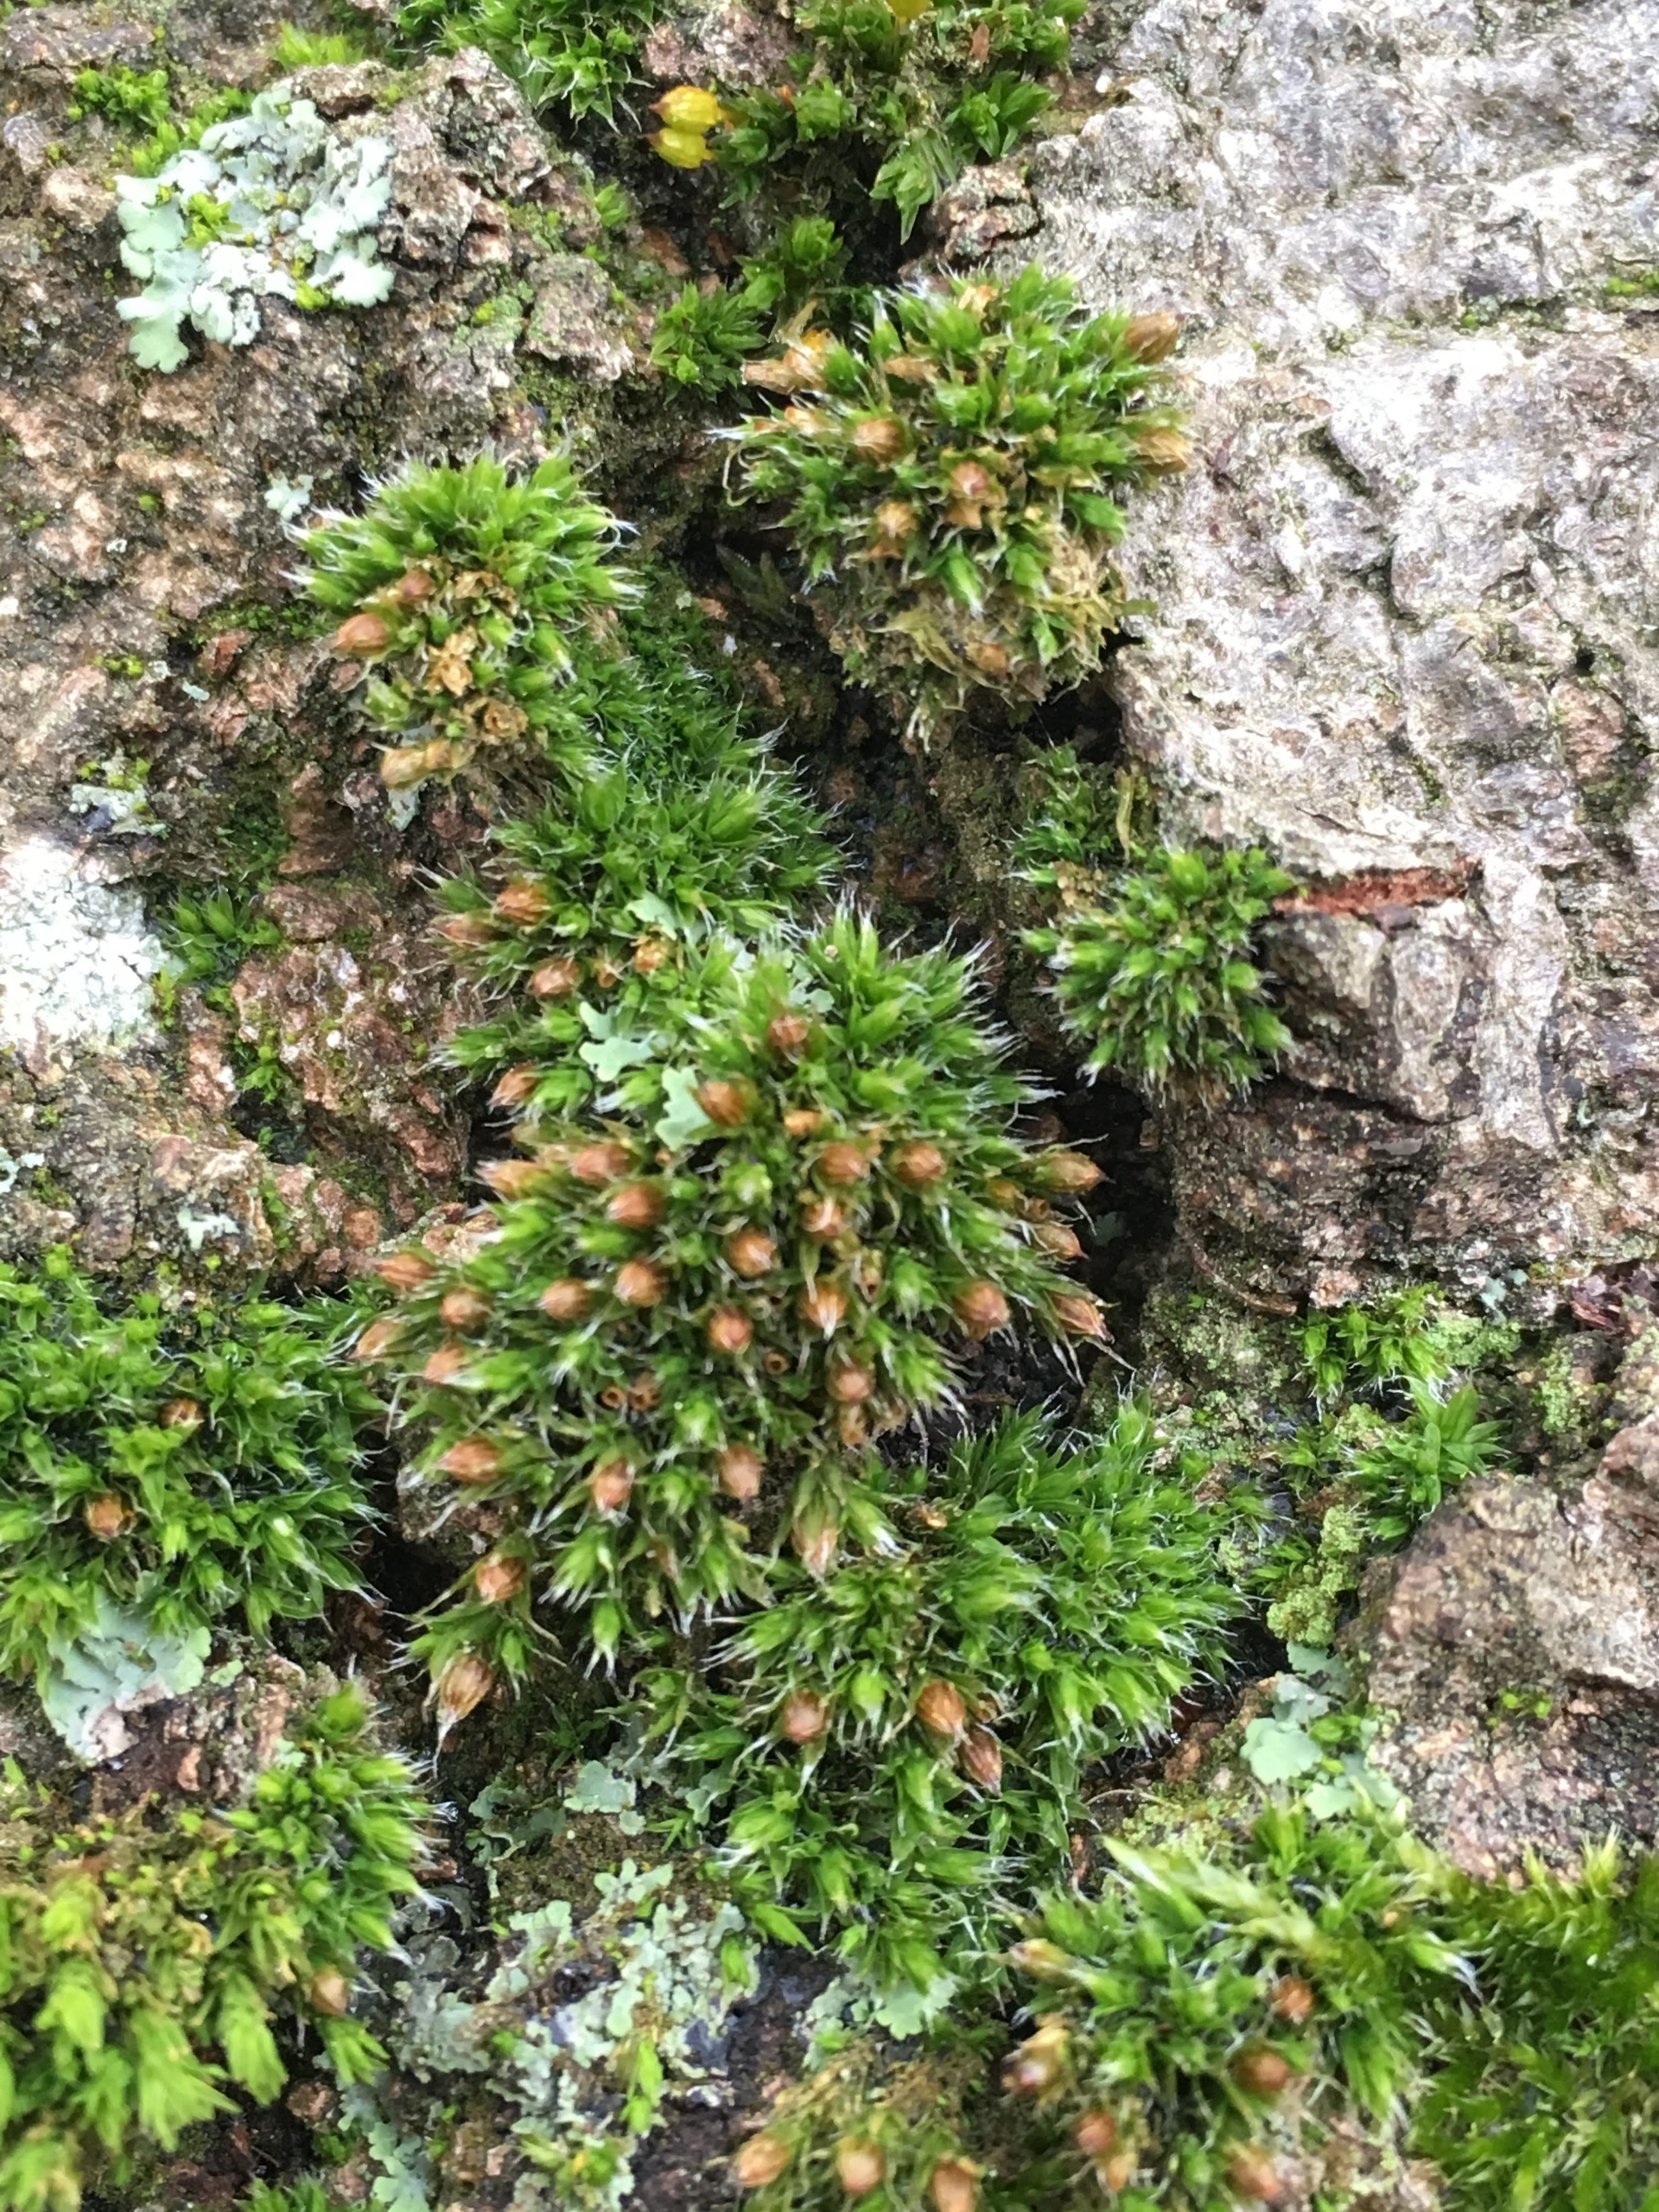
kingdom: Plantae
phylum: Bryophyta
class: Bryopsida
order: Orthotrichales
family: Orthotrichaceae
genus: Orthotrichum
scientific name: Orthotrichum diaphanum
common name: Hårspidset furehætte
